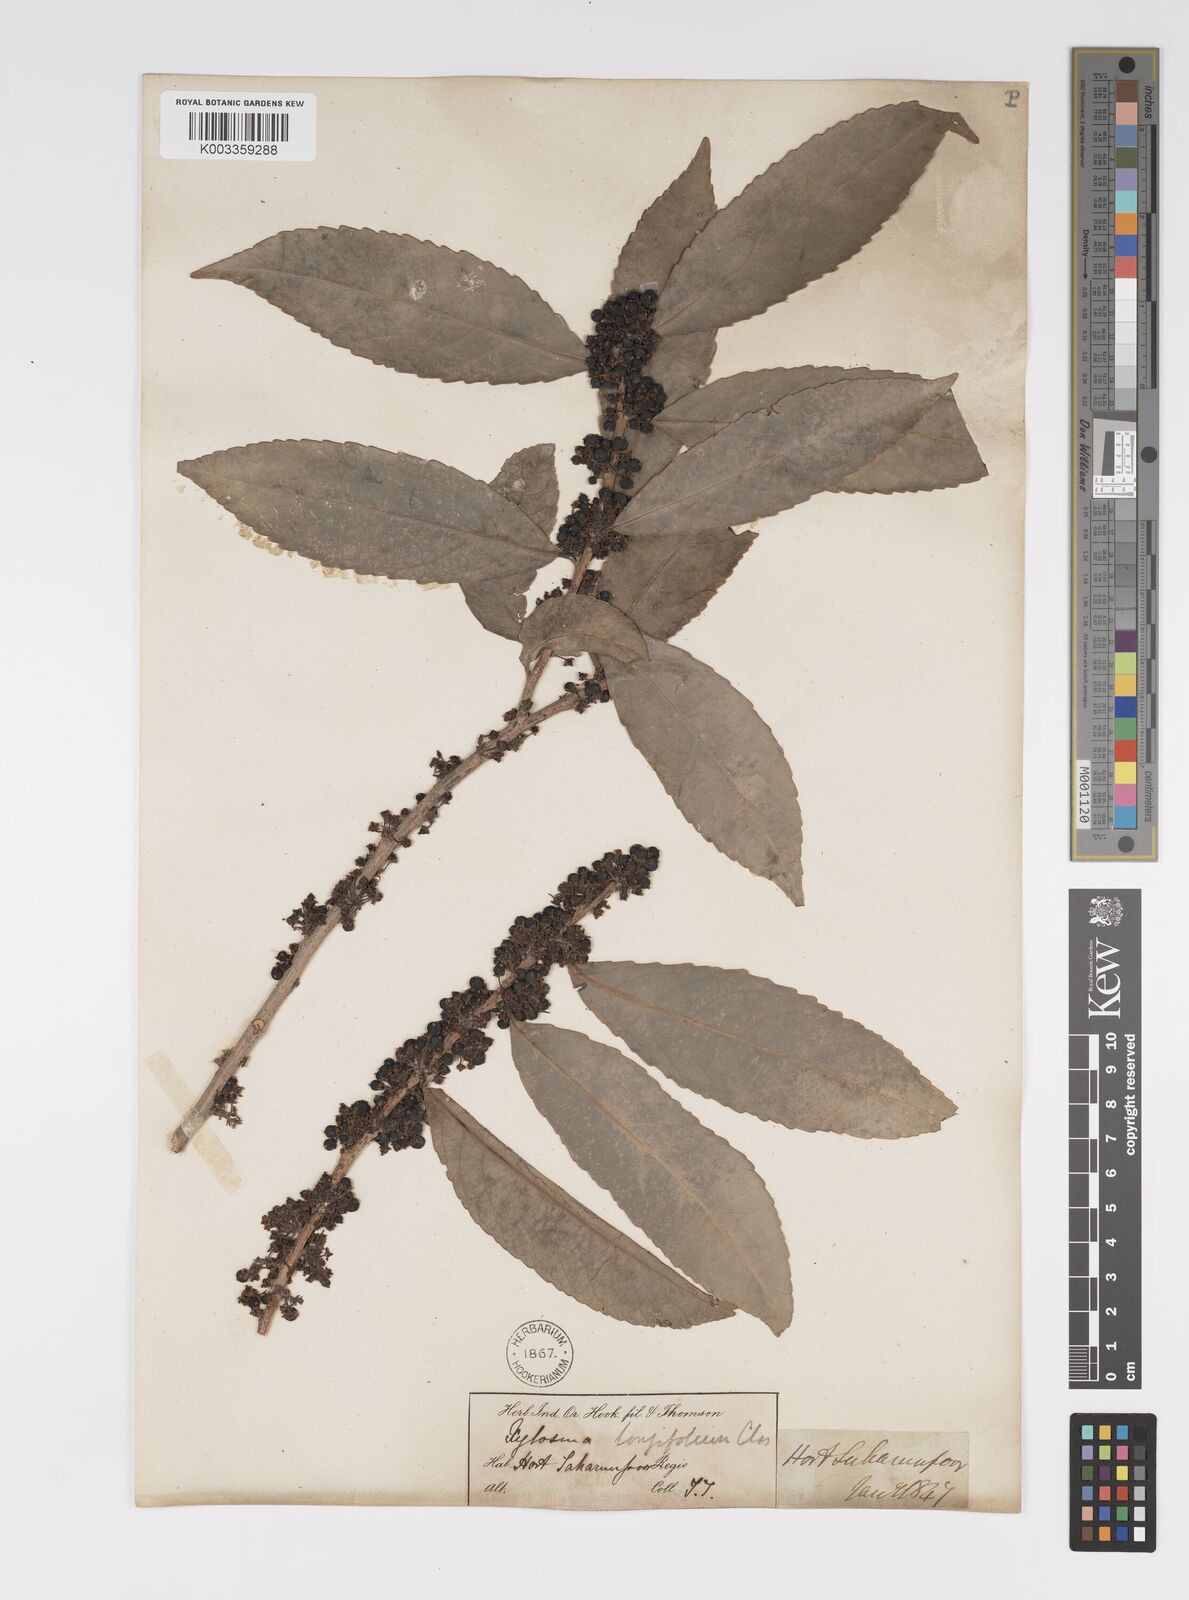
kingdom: Plantae
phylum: Tracheophyta
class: Magnoliopsida
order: Malpighiales
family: Salicaceae
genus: Xylosma
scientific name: Xylosma longifolia
